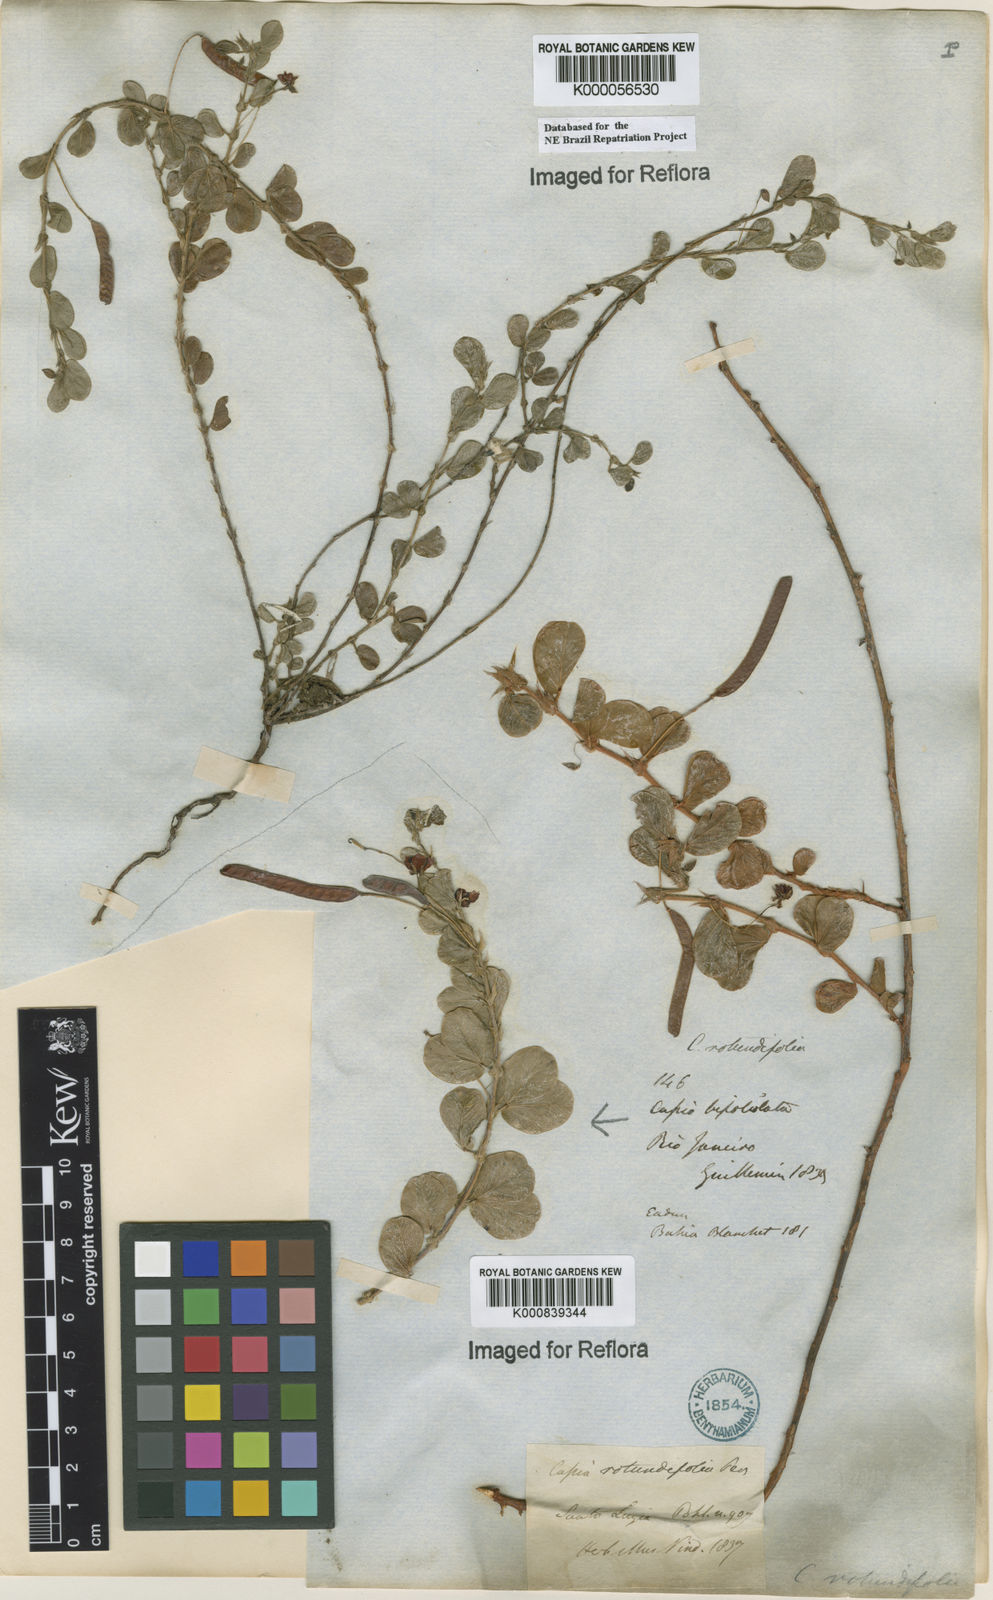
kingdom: Plantae
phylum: Tracheophyta
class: Magnoliopsida
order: Fabales
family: Fabaceae
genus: Chamaecrista
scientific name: Chamaecrista rotundifolia
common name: Round-leaf cassia
